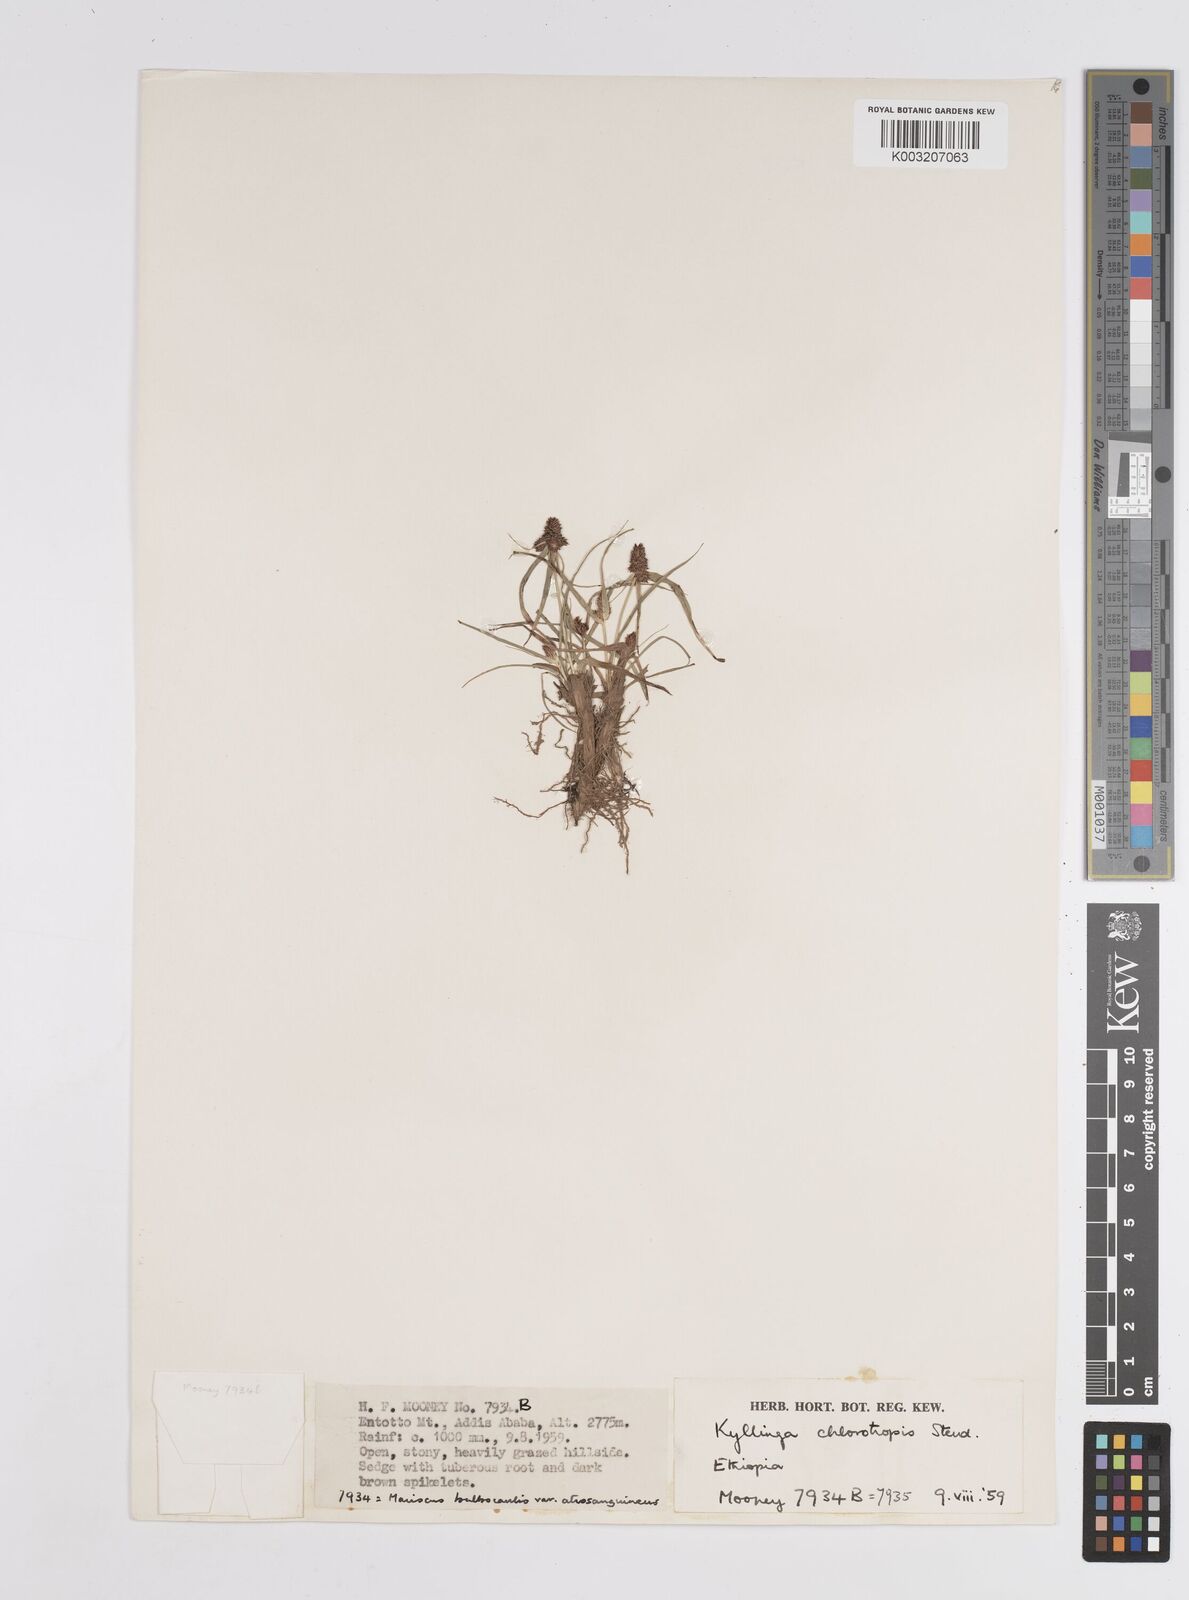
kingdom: Plantae
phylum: Tracheophyta
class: Liliopsida
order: Poales
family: Cyperaceae
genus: Cyperus
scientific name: Cyperus chlorotropis
